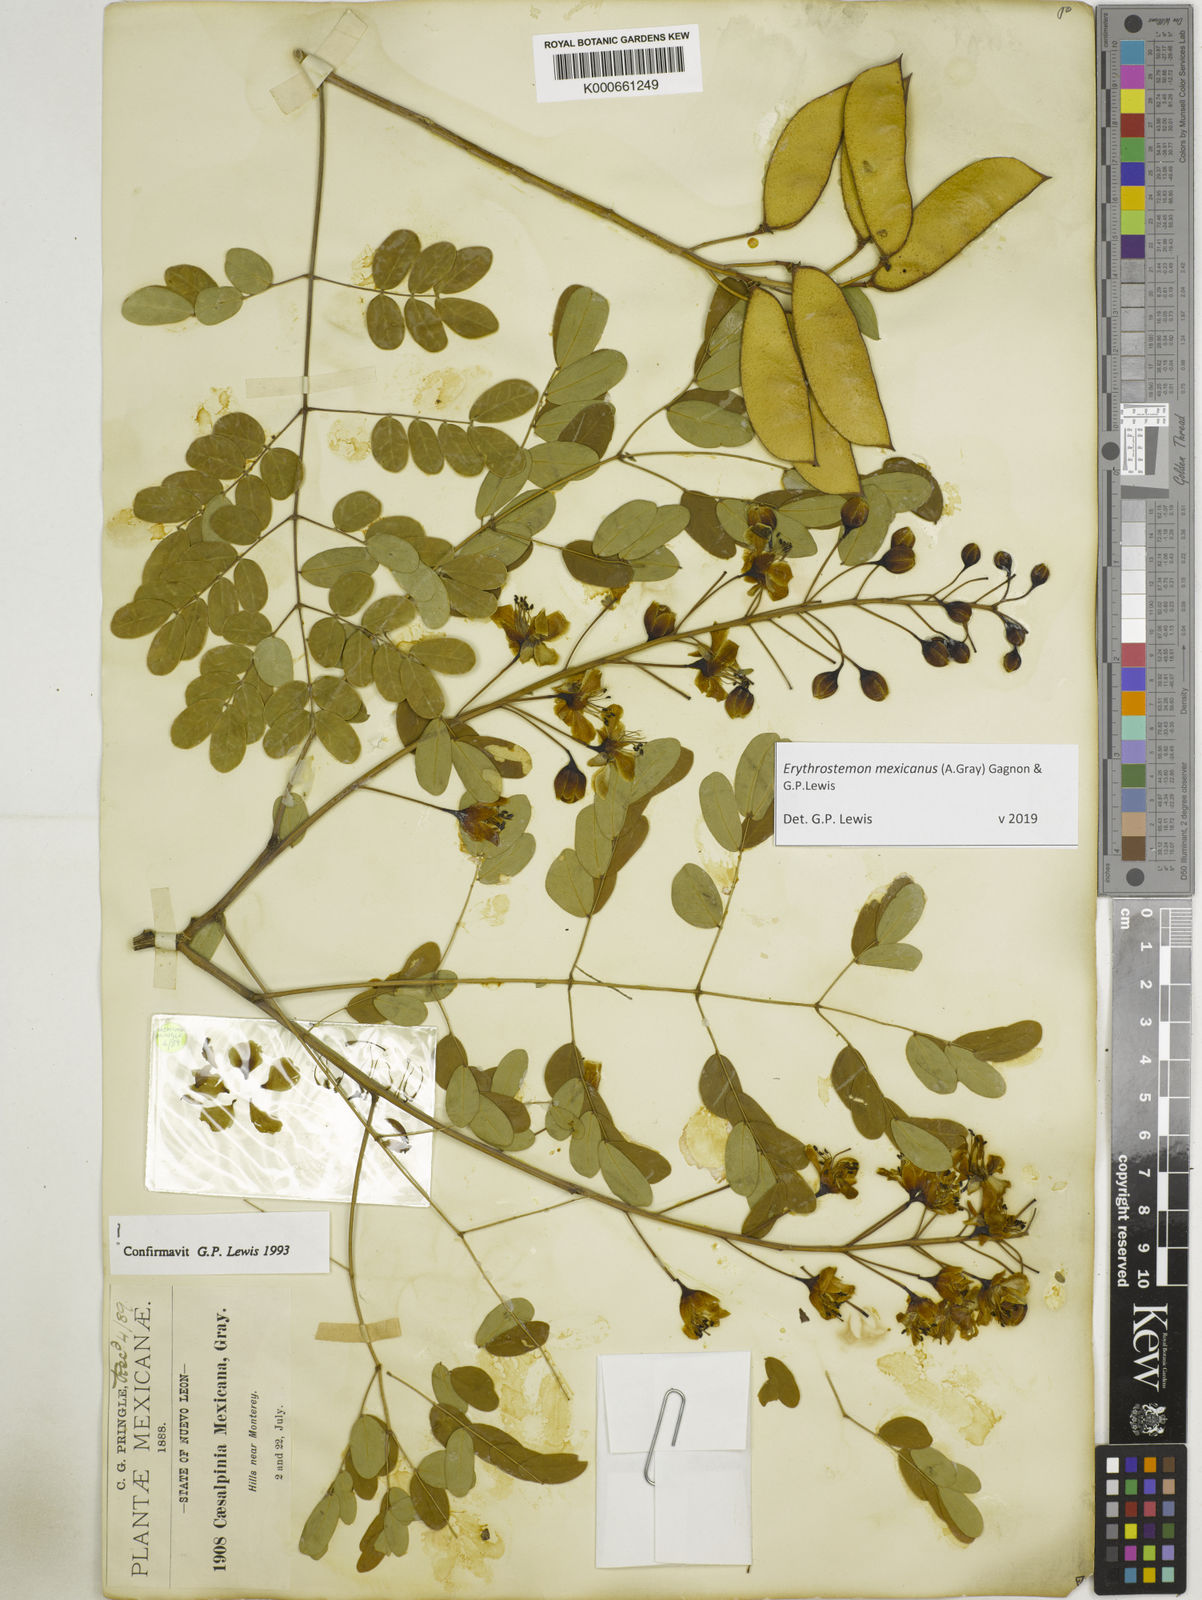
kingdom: Plantae
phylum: Tracheophyta
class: Magnoliopsida
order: Fabales
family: Fabaceae
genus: Erythrostemon
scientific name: Erythrostemon mexicanus
